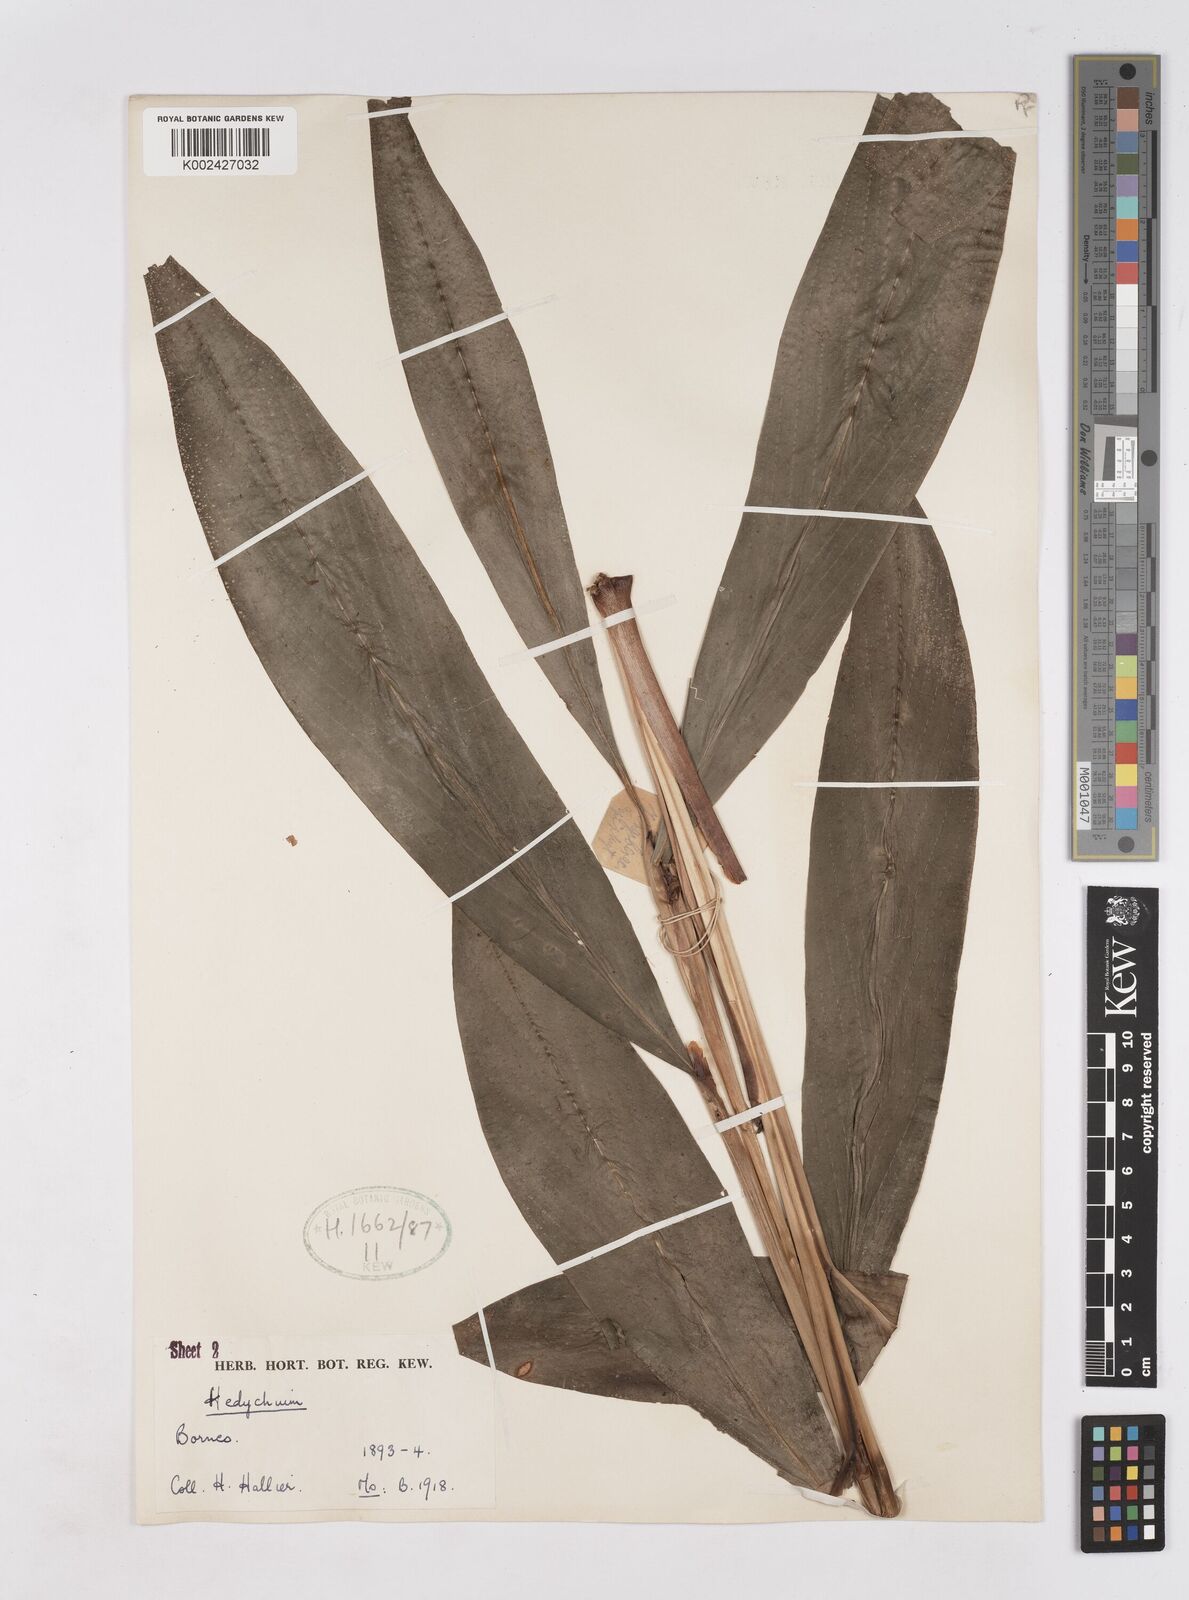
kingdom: Plantae
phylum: Tracheophyta
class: Liliopsida
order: Zingiberales
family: Zingiberaceae
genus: Hedychium
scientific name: Hedychium lineare
